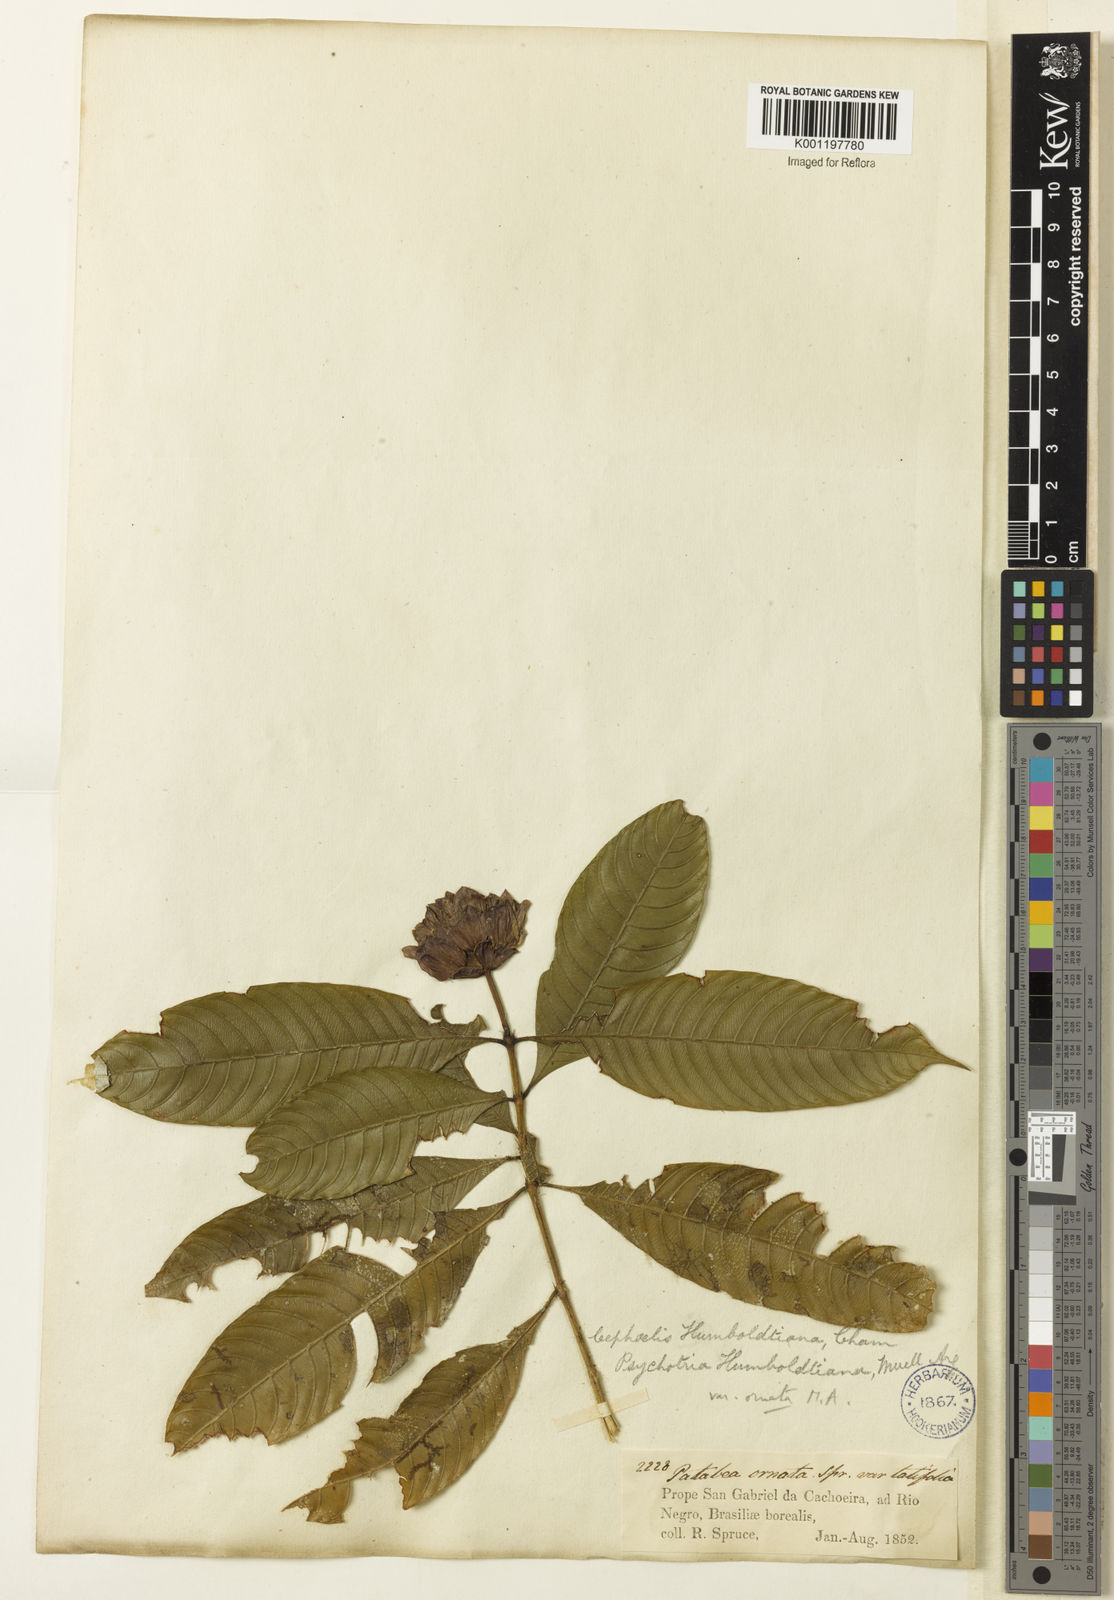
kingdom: Plantae
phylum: Tracheophyta
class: Magnoliopsida
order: Gentianales
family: Rubiaceae
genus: Psychotria
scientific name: Psychotria
